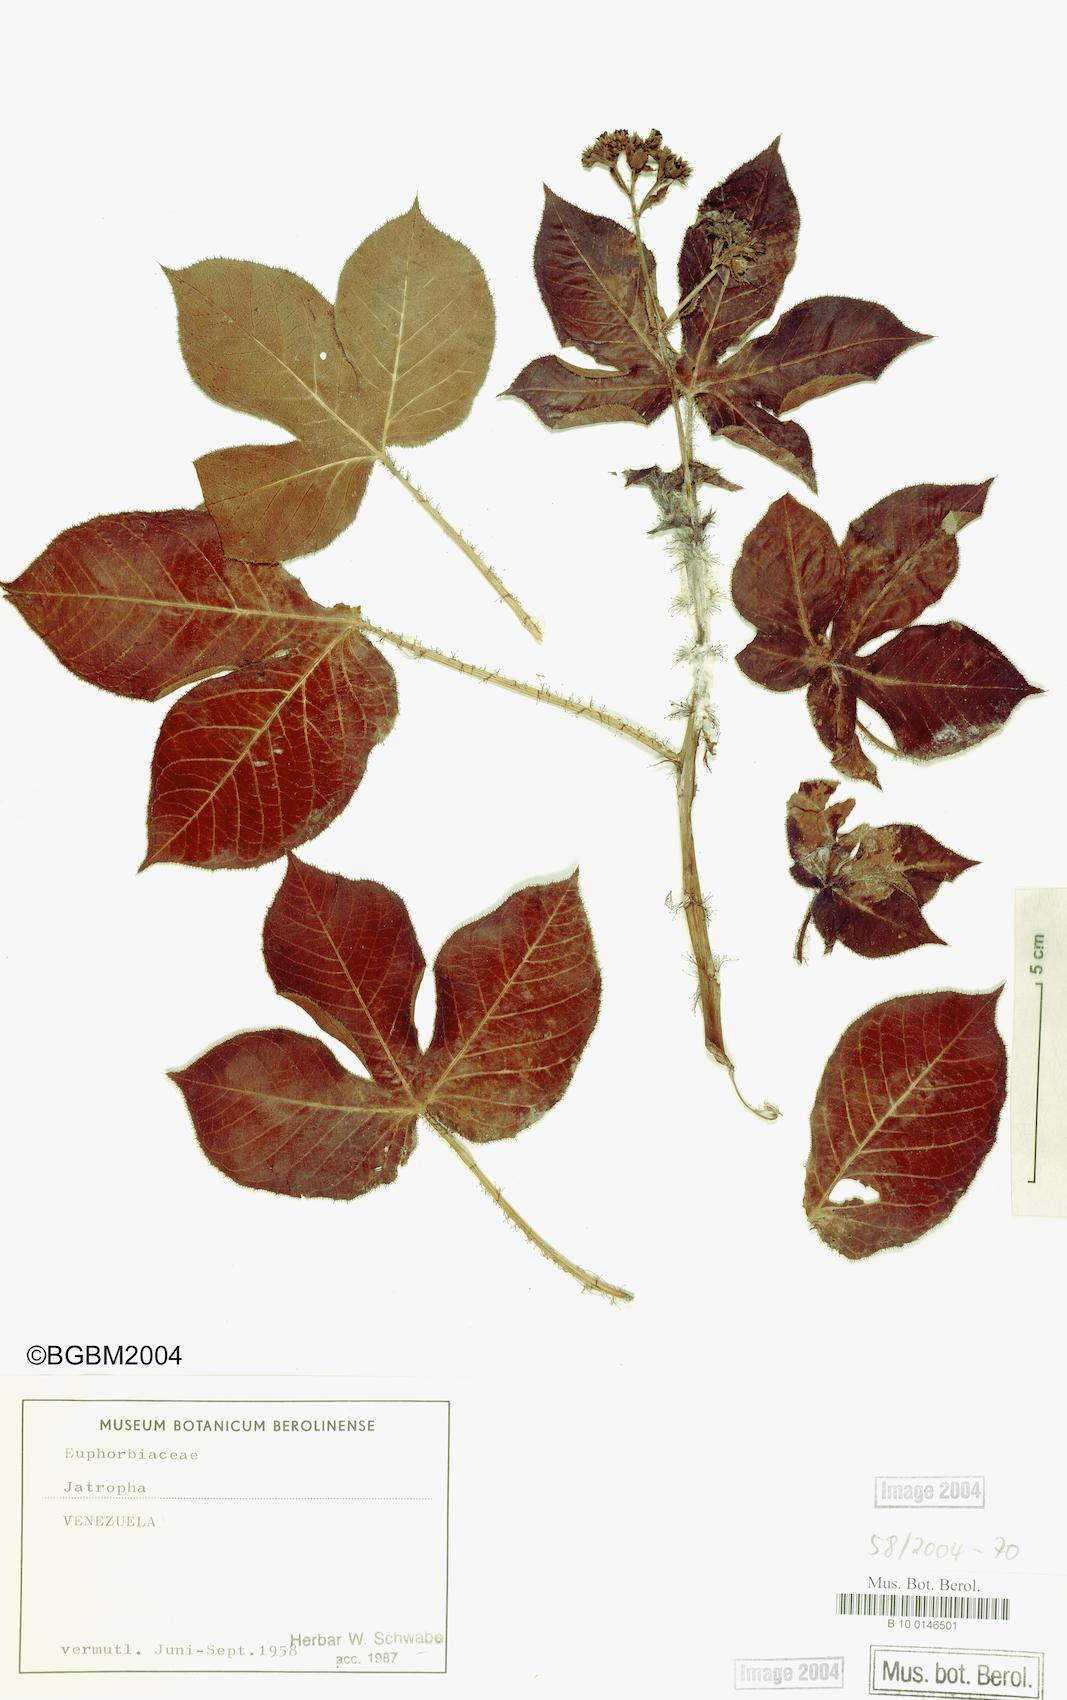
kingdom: Plantae
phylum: Tracheophyta
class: Magnoliopsida
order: Malpighiales
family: Euphorbiaceae
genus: Jatropha
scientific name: Jatropha
